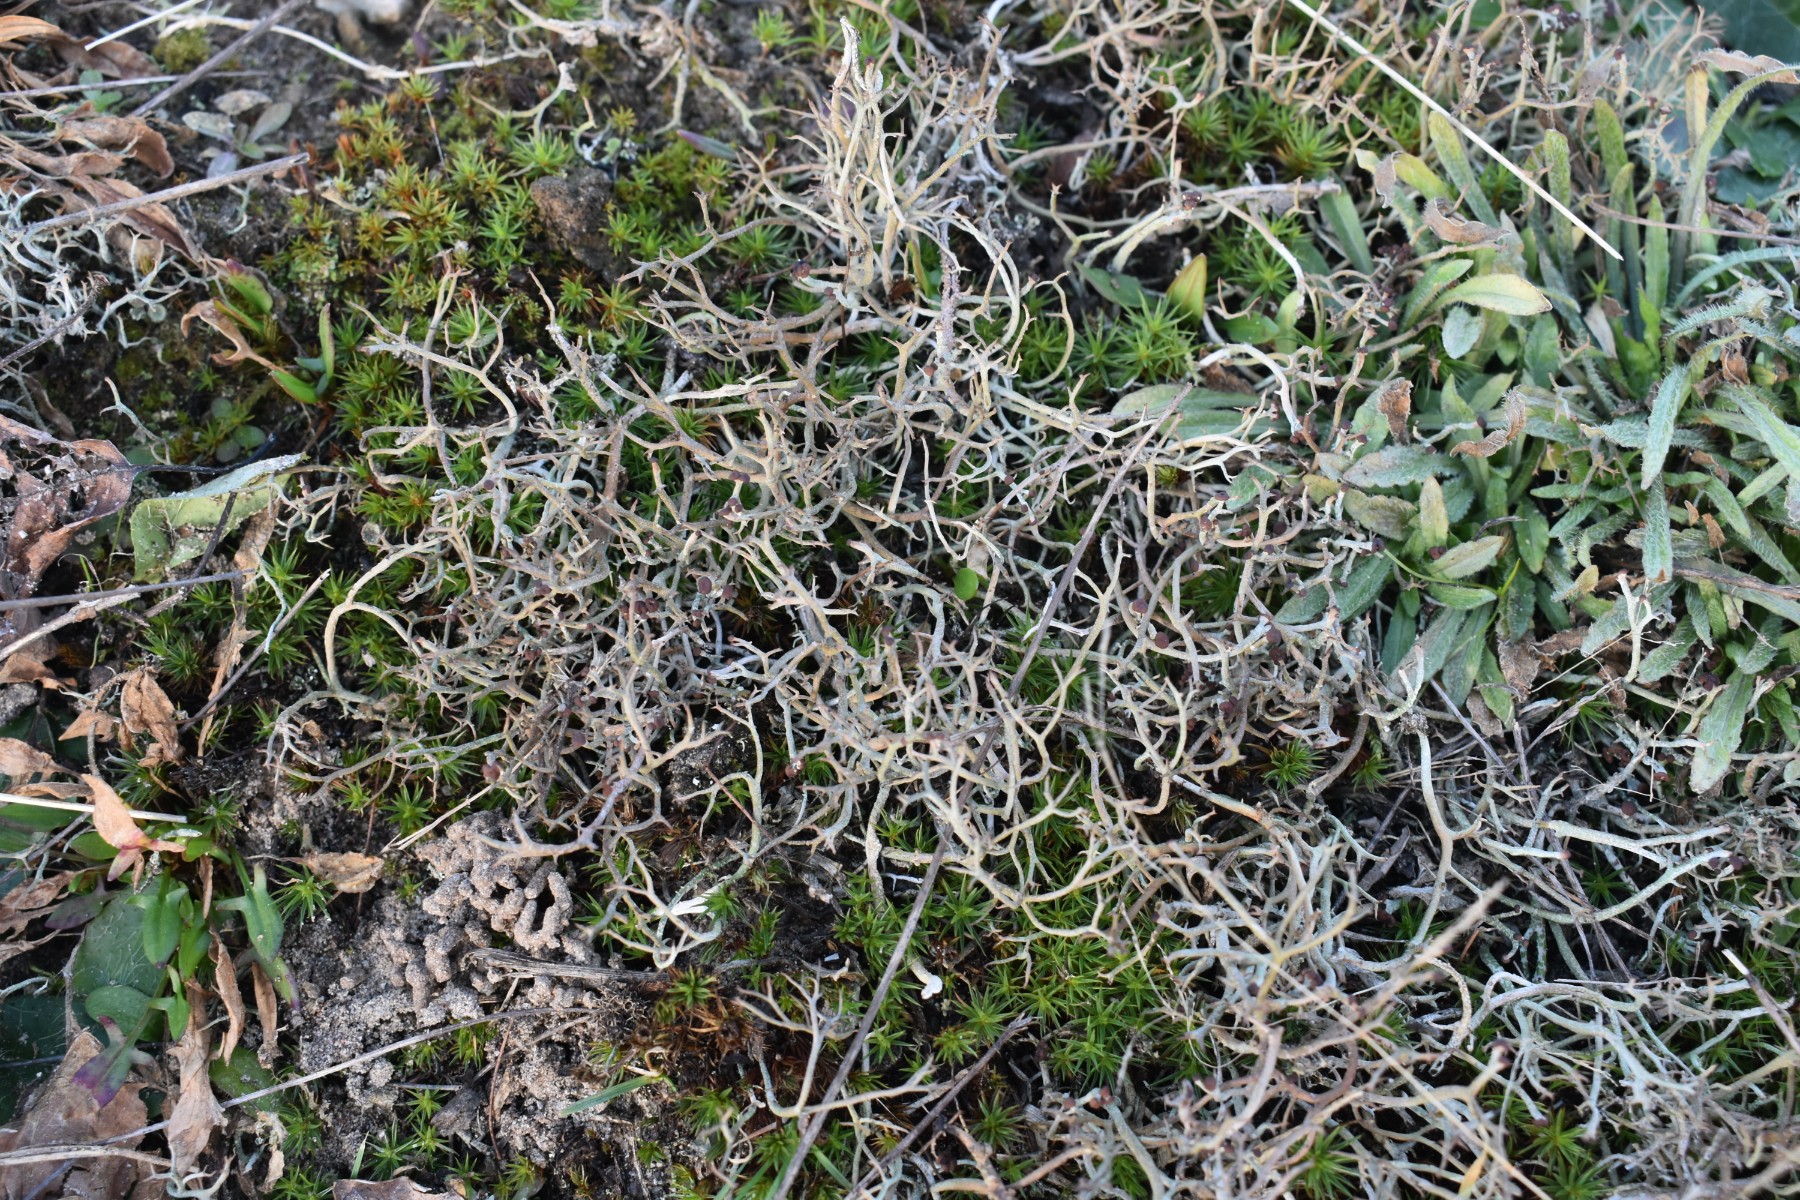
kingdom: Fungi
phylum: Ascomycota
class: Lecanoromycetes
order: Lecanorales
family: Cladoniaceae
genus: Cladonia
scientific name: Cladonia furcata
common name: kløftet bægerlav
